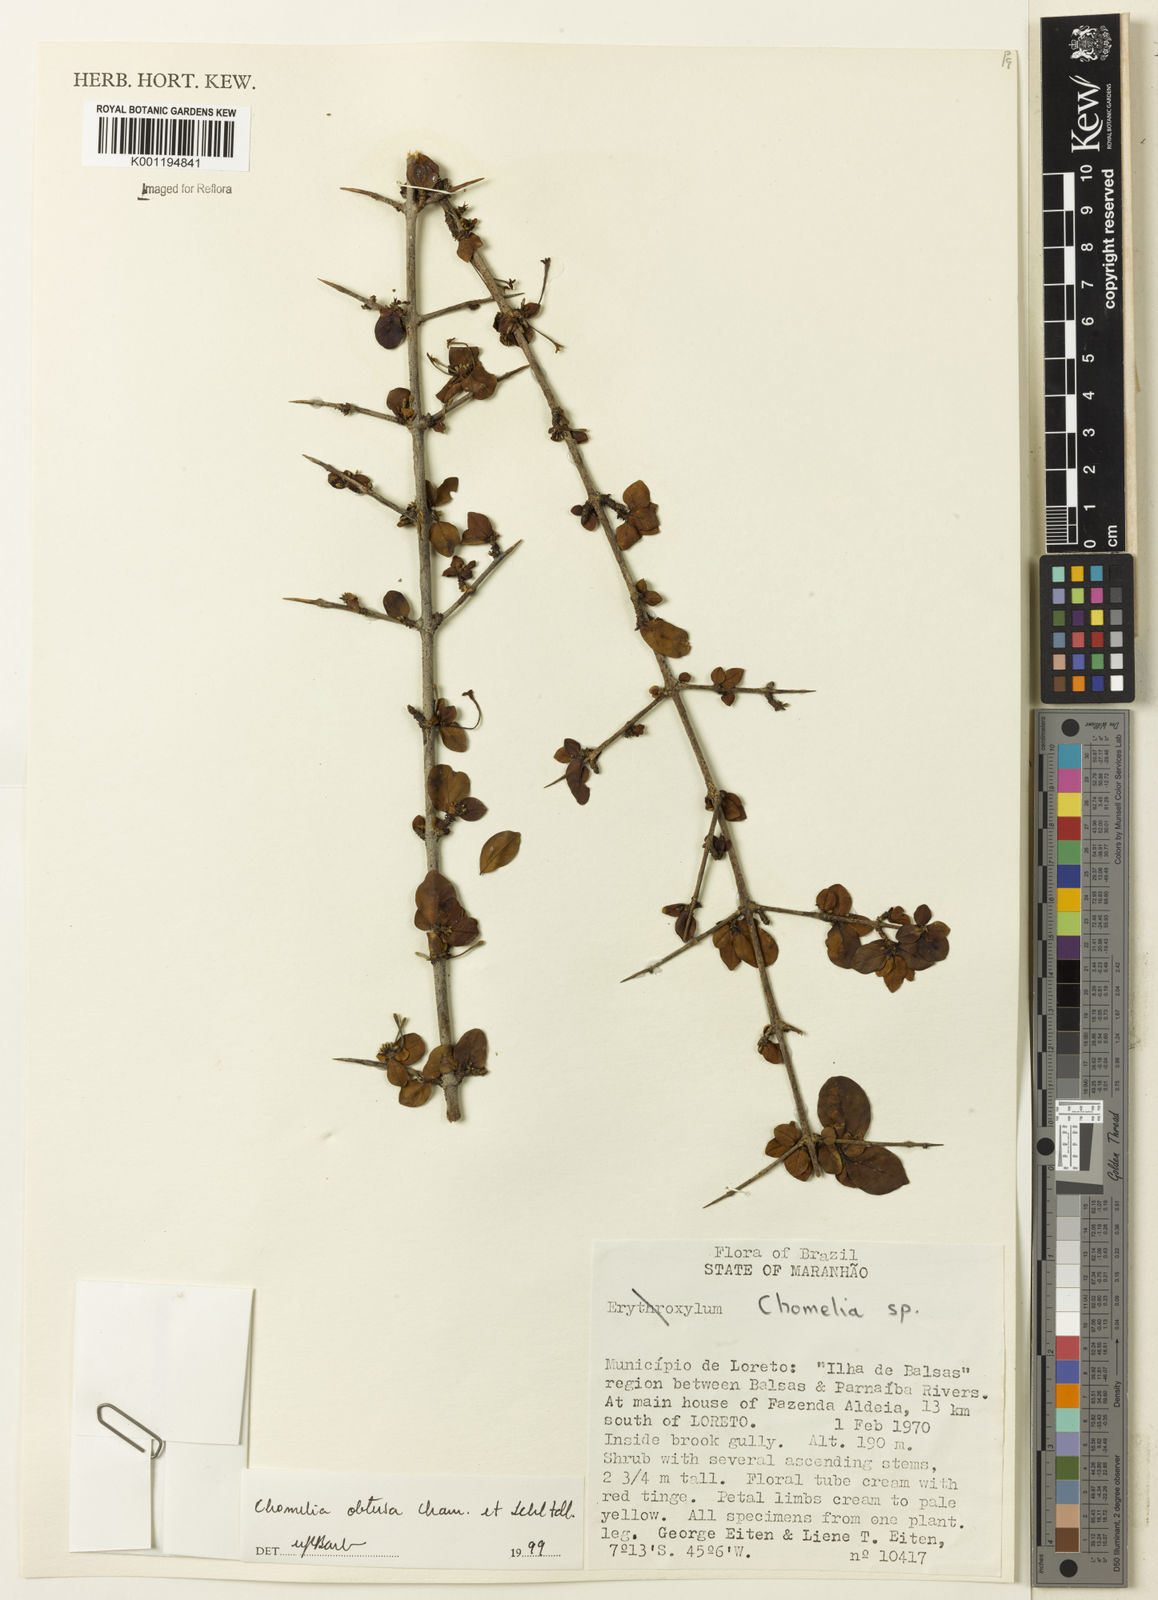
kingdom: Plantae
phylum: Tracheophyta
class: Magnoliopsida
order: Gentianales
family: Rubiaceae
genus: Chomelia
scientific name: Chomelia obtusa
